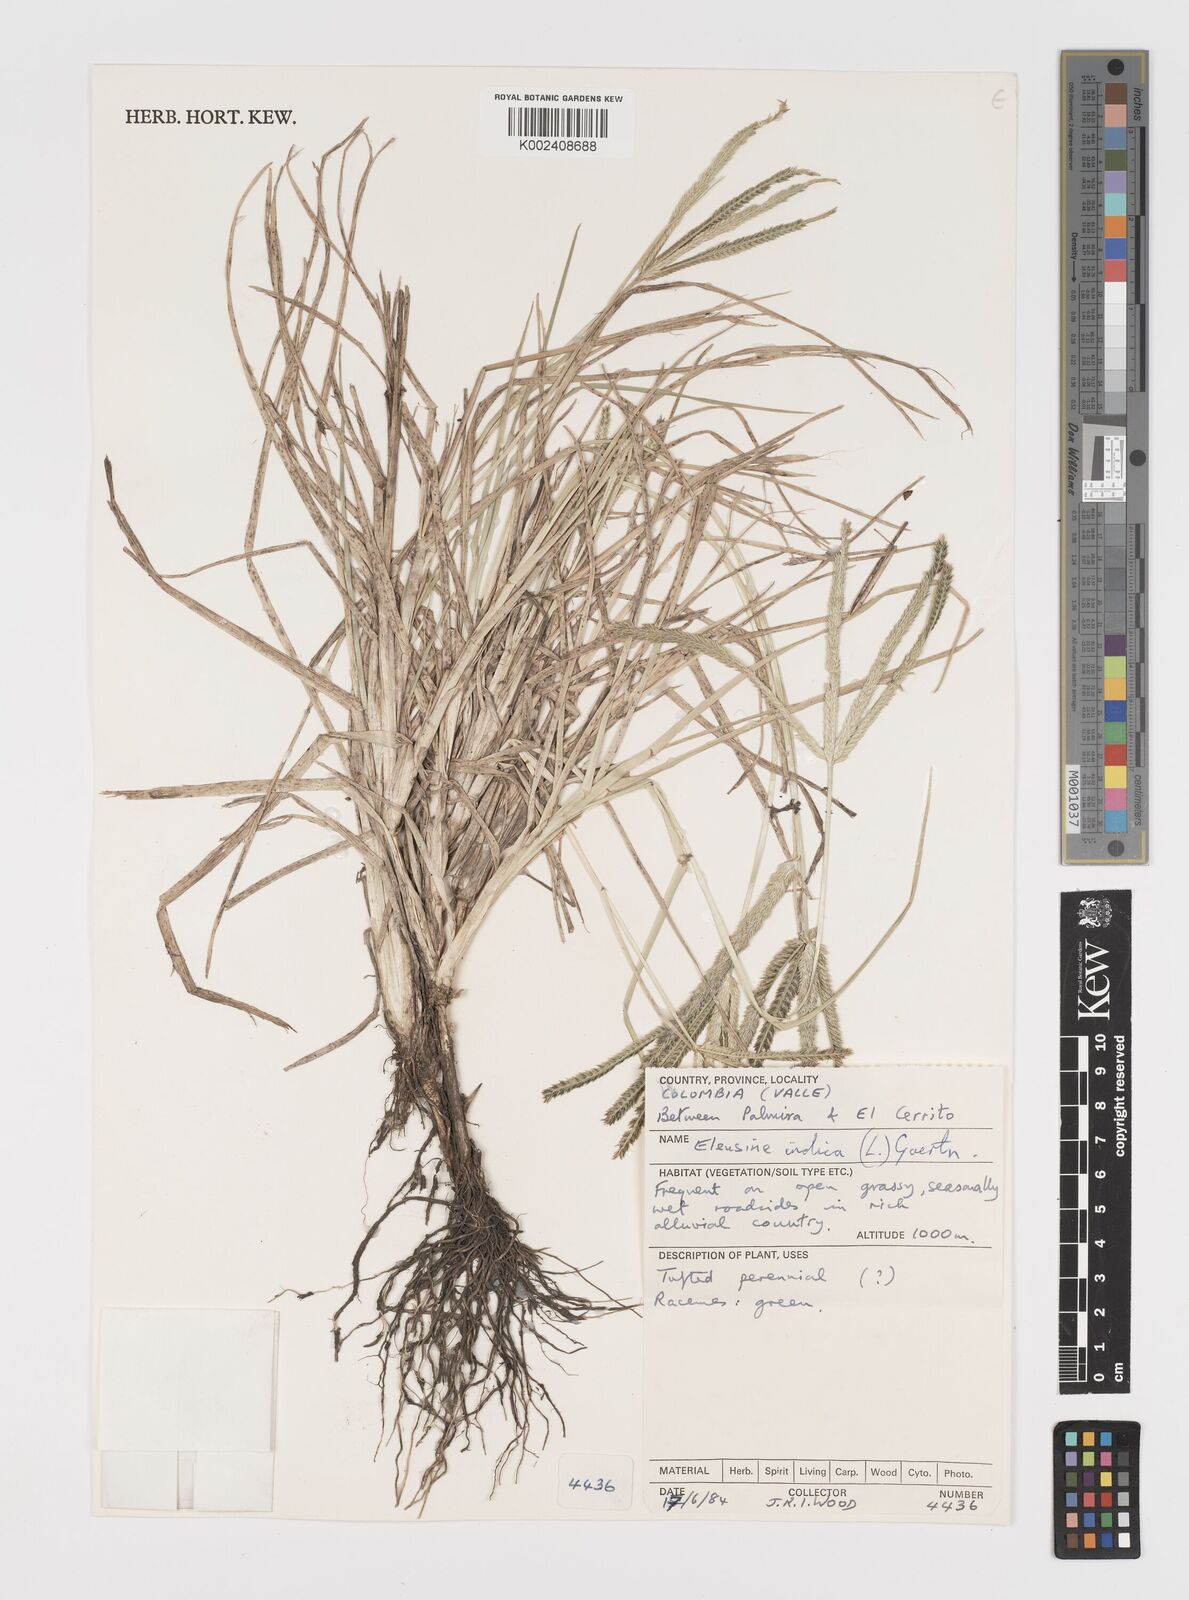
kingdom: Plantae
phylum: Tracheophyta
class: Liliopsida
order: Poales
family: Poaceae
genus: Eleusine
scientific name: Eleusine indica
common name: Yard-grass
